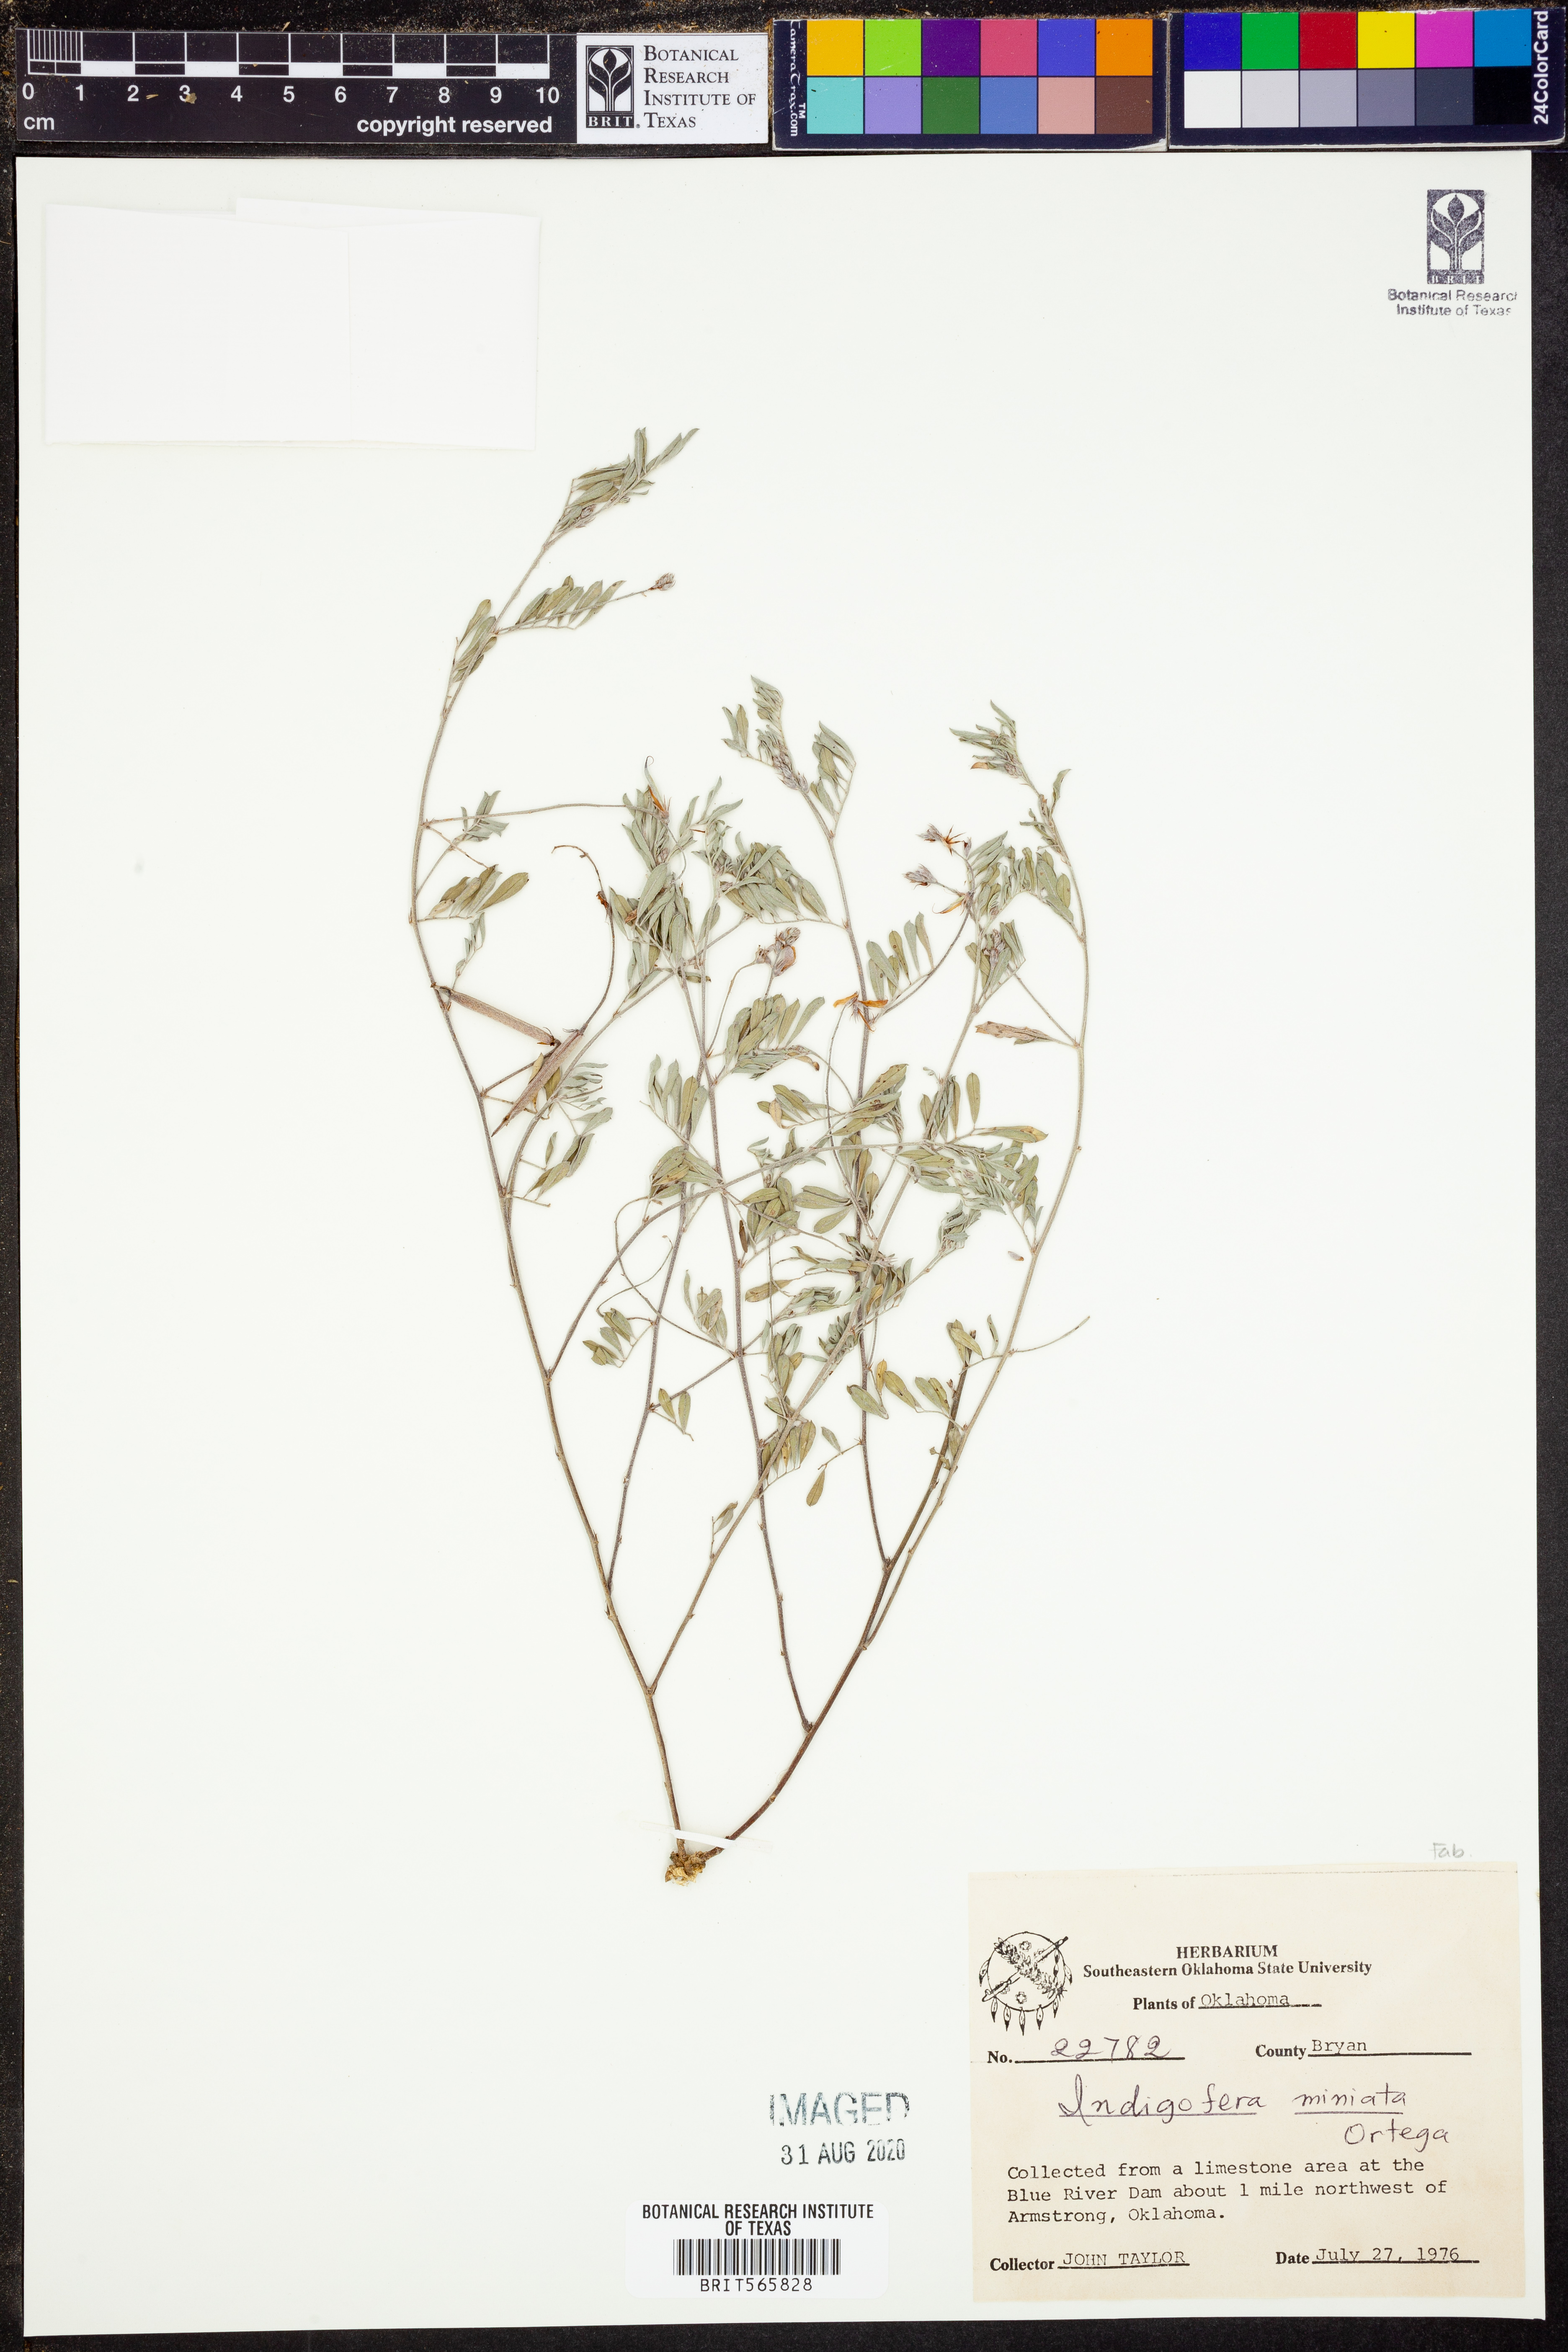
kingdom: Plantae
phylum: Tracheophyta
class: Magnoliopsida
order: Fabales
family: Fabaceae
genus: Indigofera
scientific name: Indigofera miniata
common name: Coast indigo
